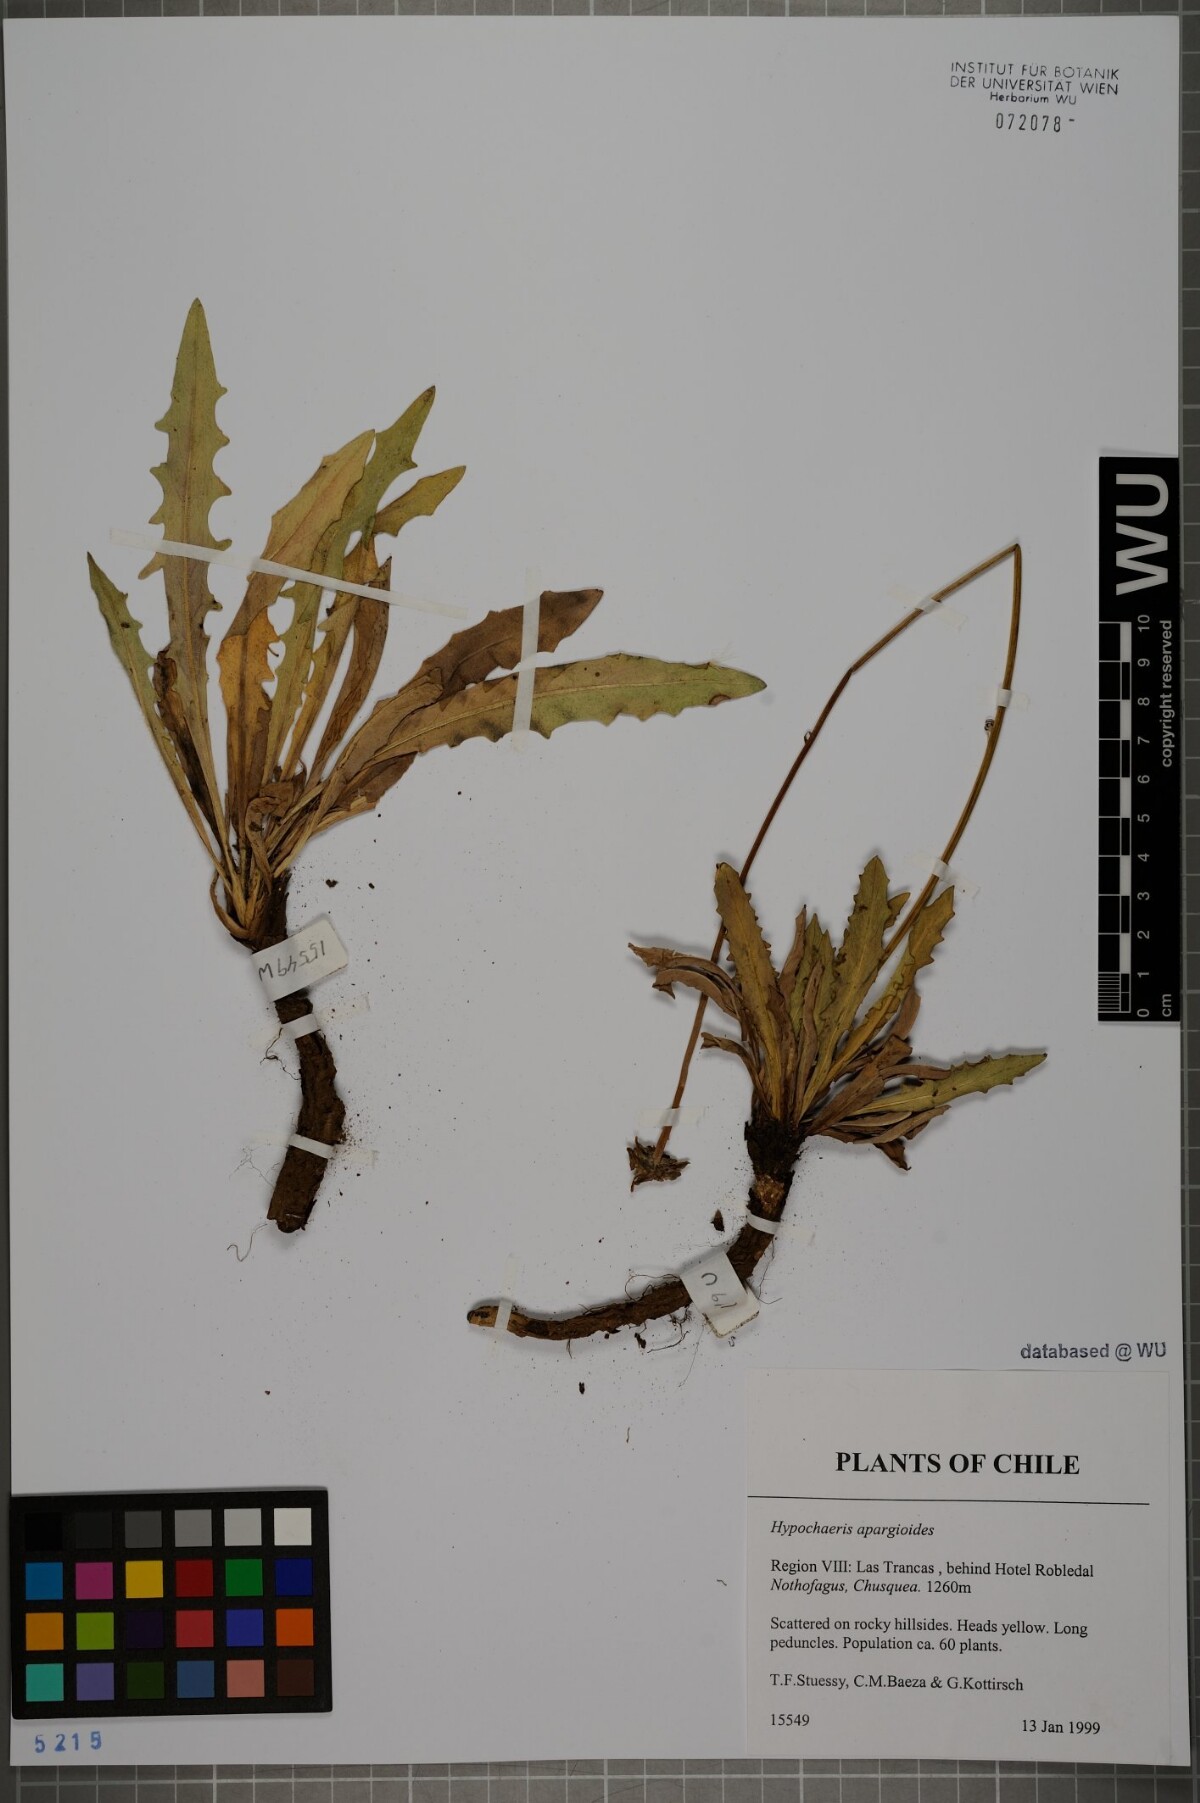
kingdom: Plantae
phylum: Tracheophyta
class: Magnoliopsida
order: Asterales
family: Asteraceae
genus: Hypochaeris
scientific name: Hypochaeris apargioides
